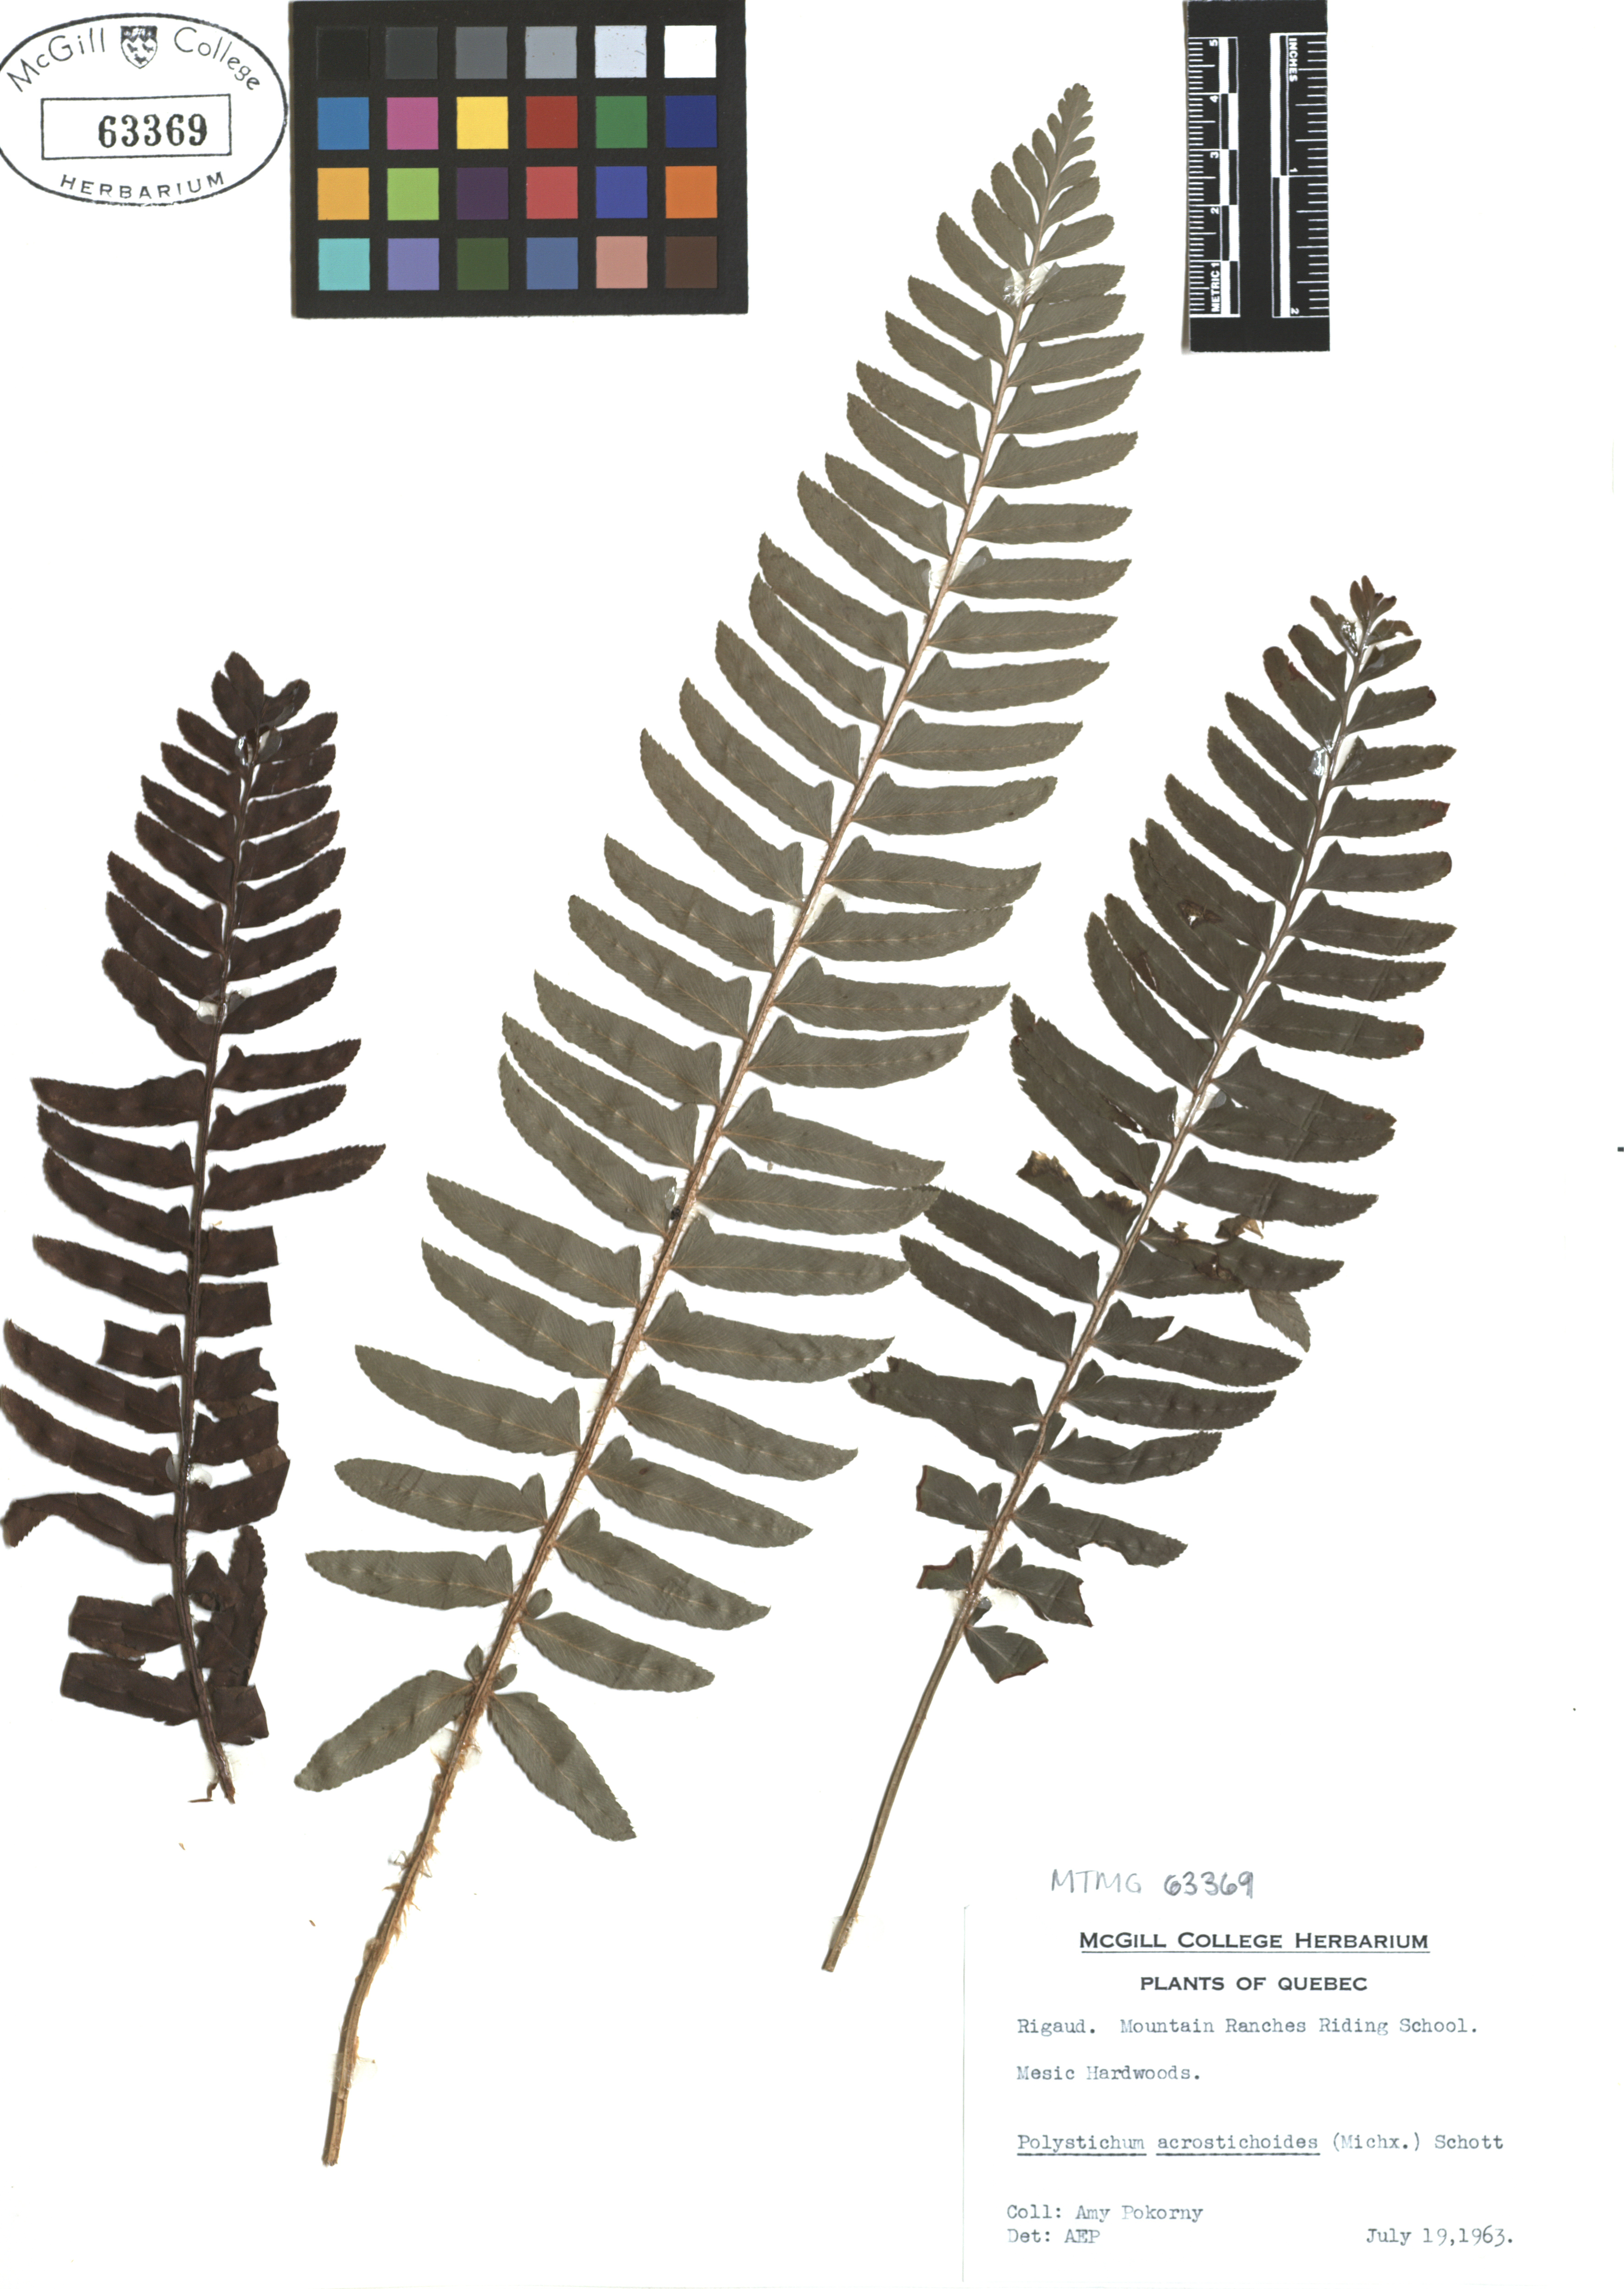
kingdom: Plantae
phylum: Tracheophyta
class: Polypodiopsida
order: Polypodiales
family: Dryopteridaceae
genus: Polystichum
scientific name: Polystichum acrostichoides
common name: Christmas fern
